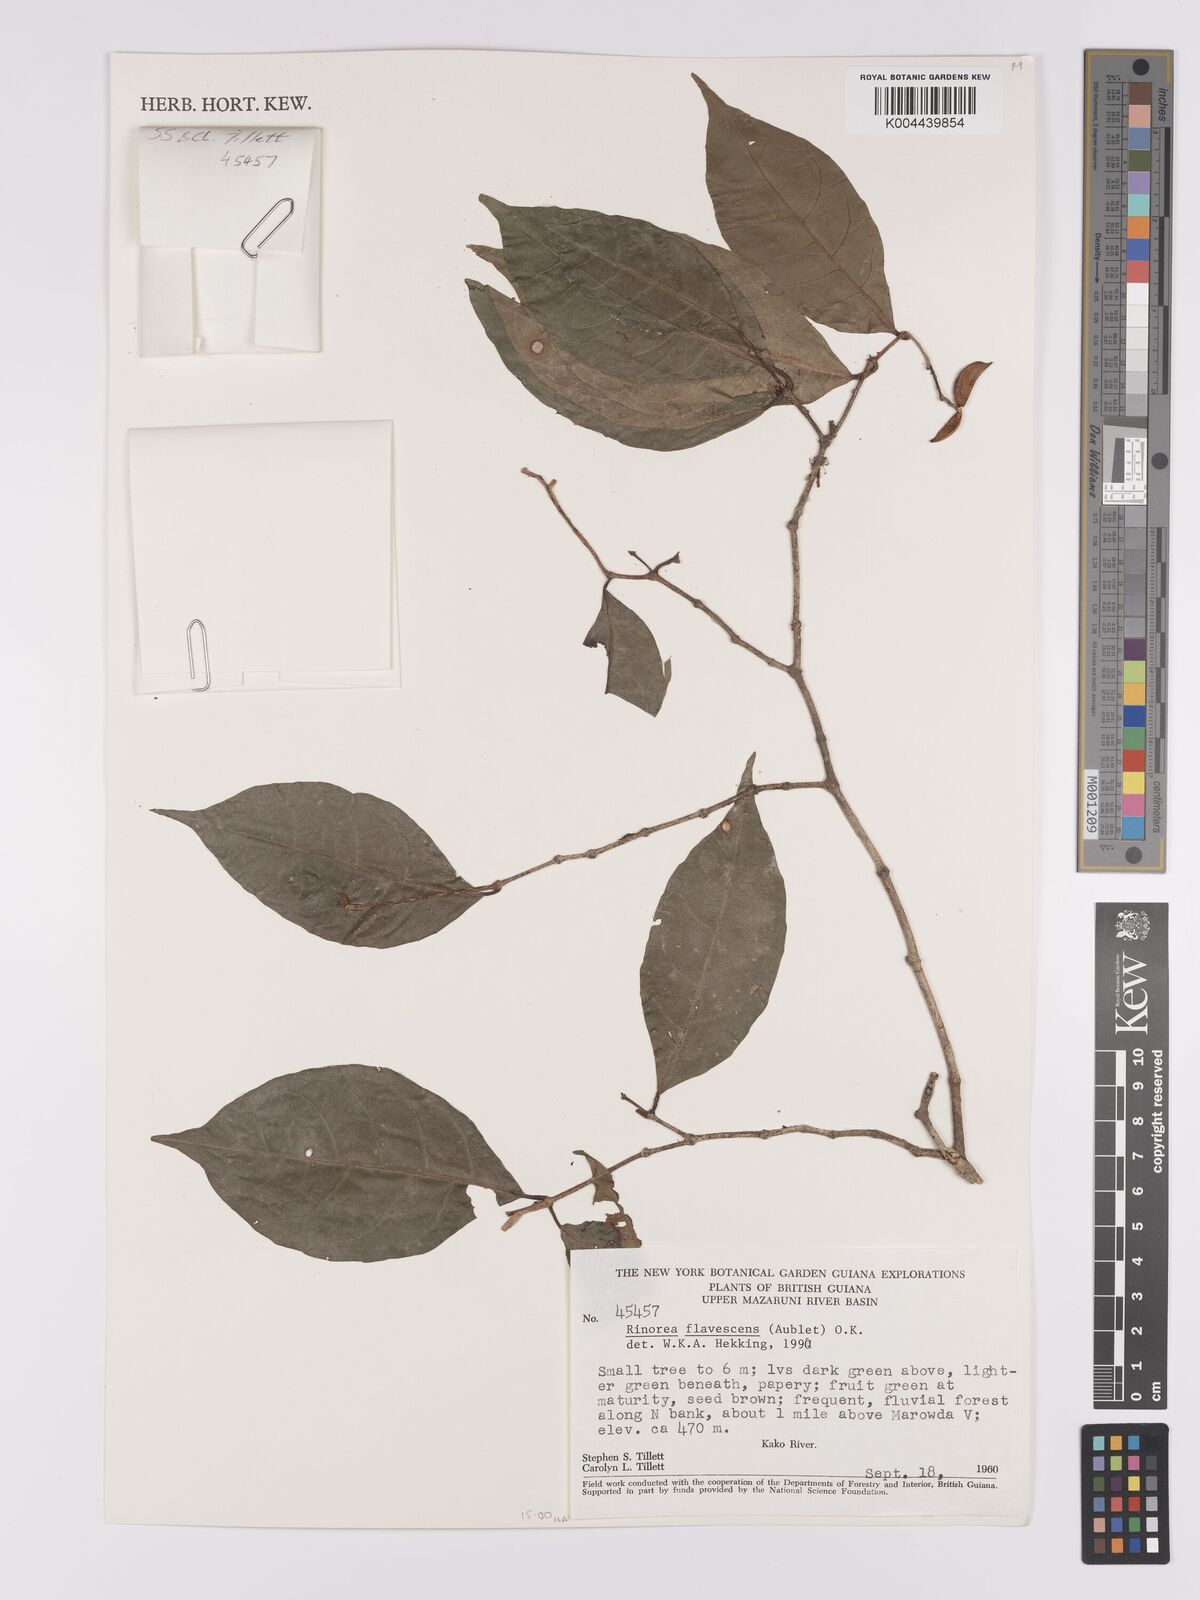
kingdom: Plantae
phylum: Tracheophyta
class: Magnoliopsida
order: Malpighiales
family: Violaceae
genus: Rinorea
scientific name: Rinorea flavescens
